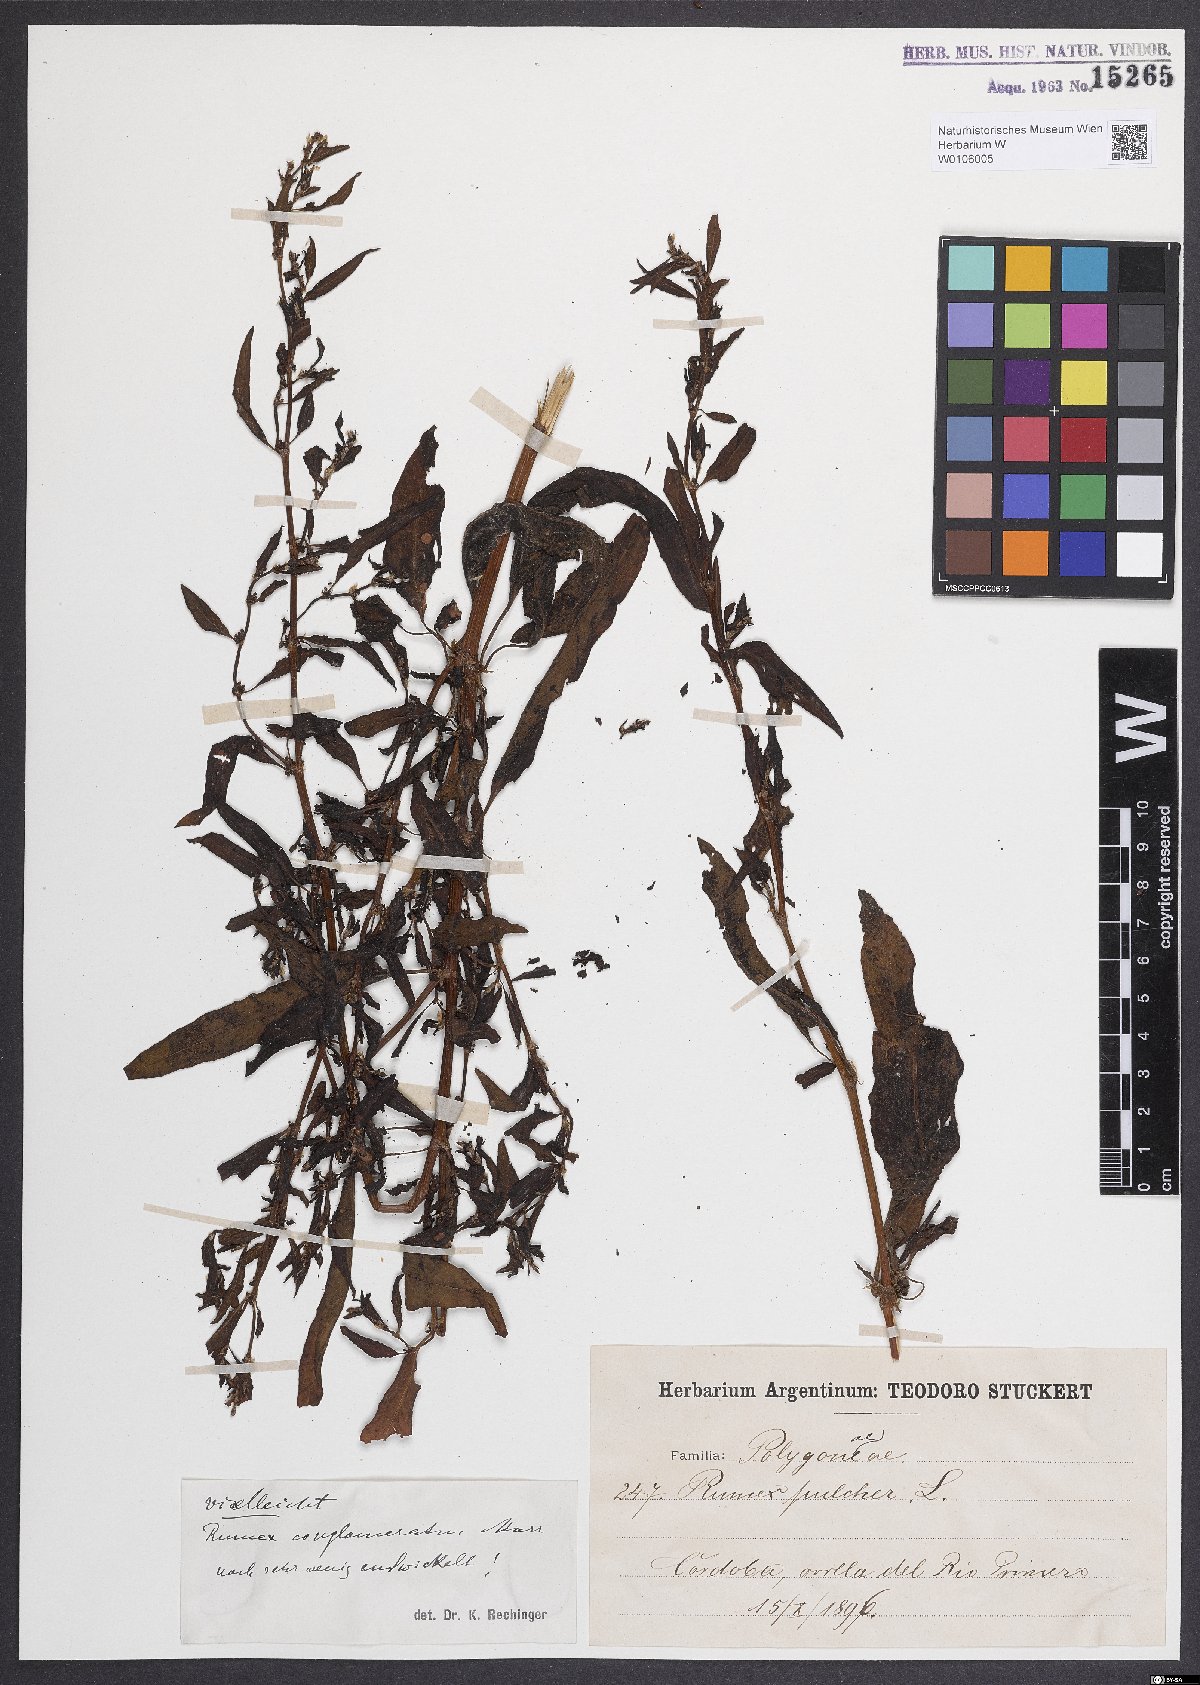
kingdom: Plantae
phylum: Tracheophyta
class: Magnoliopsida
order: Caryophyllales
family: Polygonaceae
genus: Rumex
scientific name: Rumex conglomeratus
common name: Clustered dock
